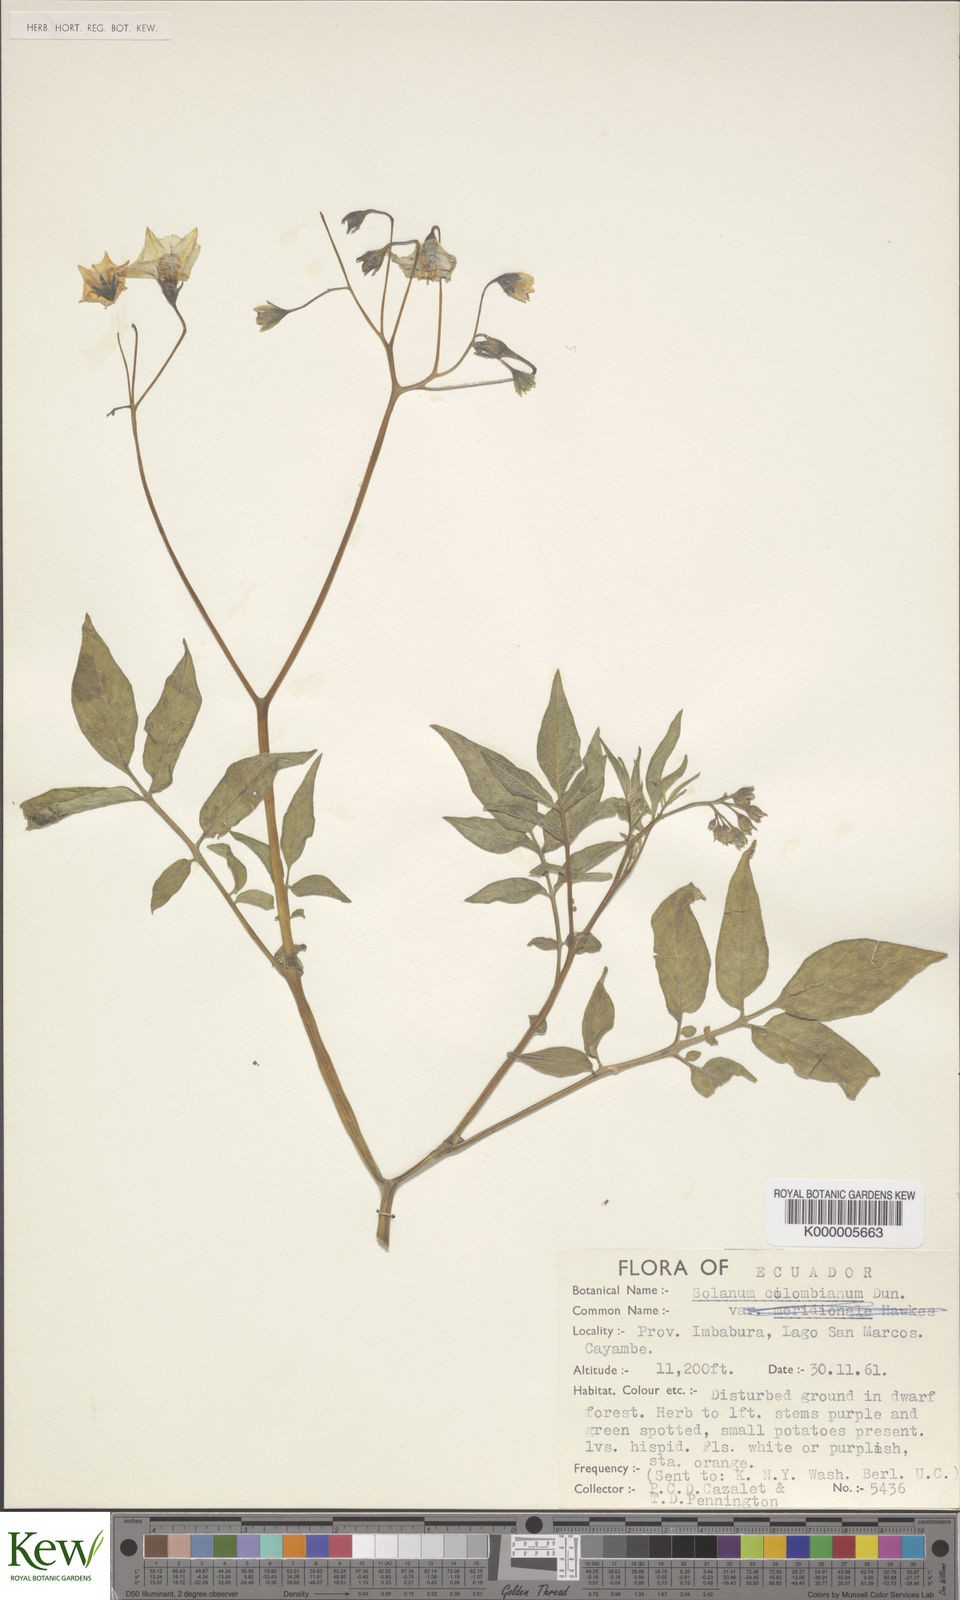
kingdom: Plantae
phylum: Tracheophyta
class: Magnoliopsida
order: Solanales
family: Solanaceae
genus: Solanum
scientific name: Solanum colombianum
